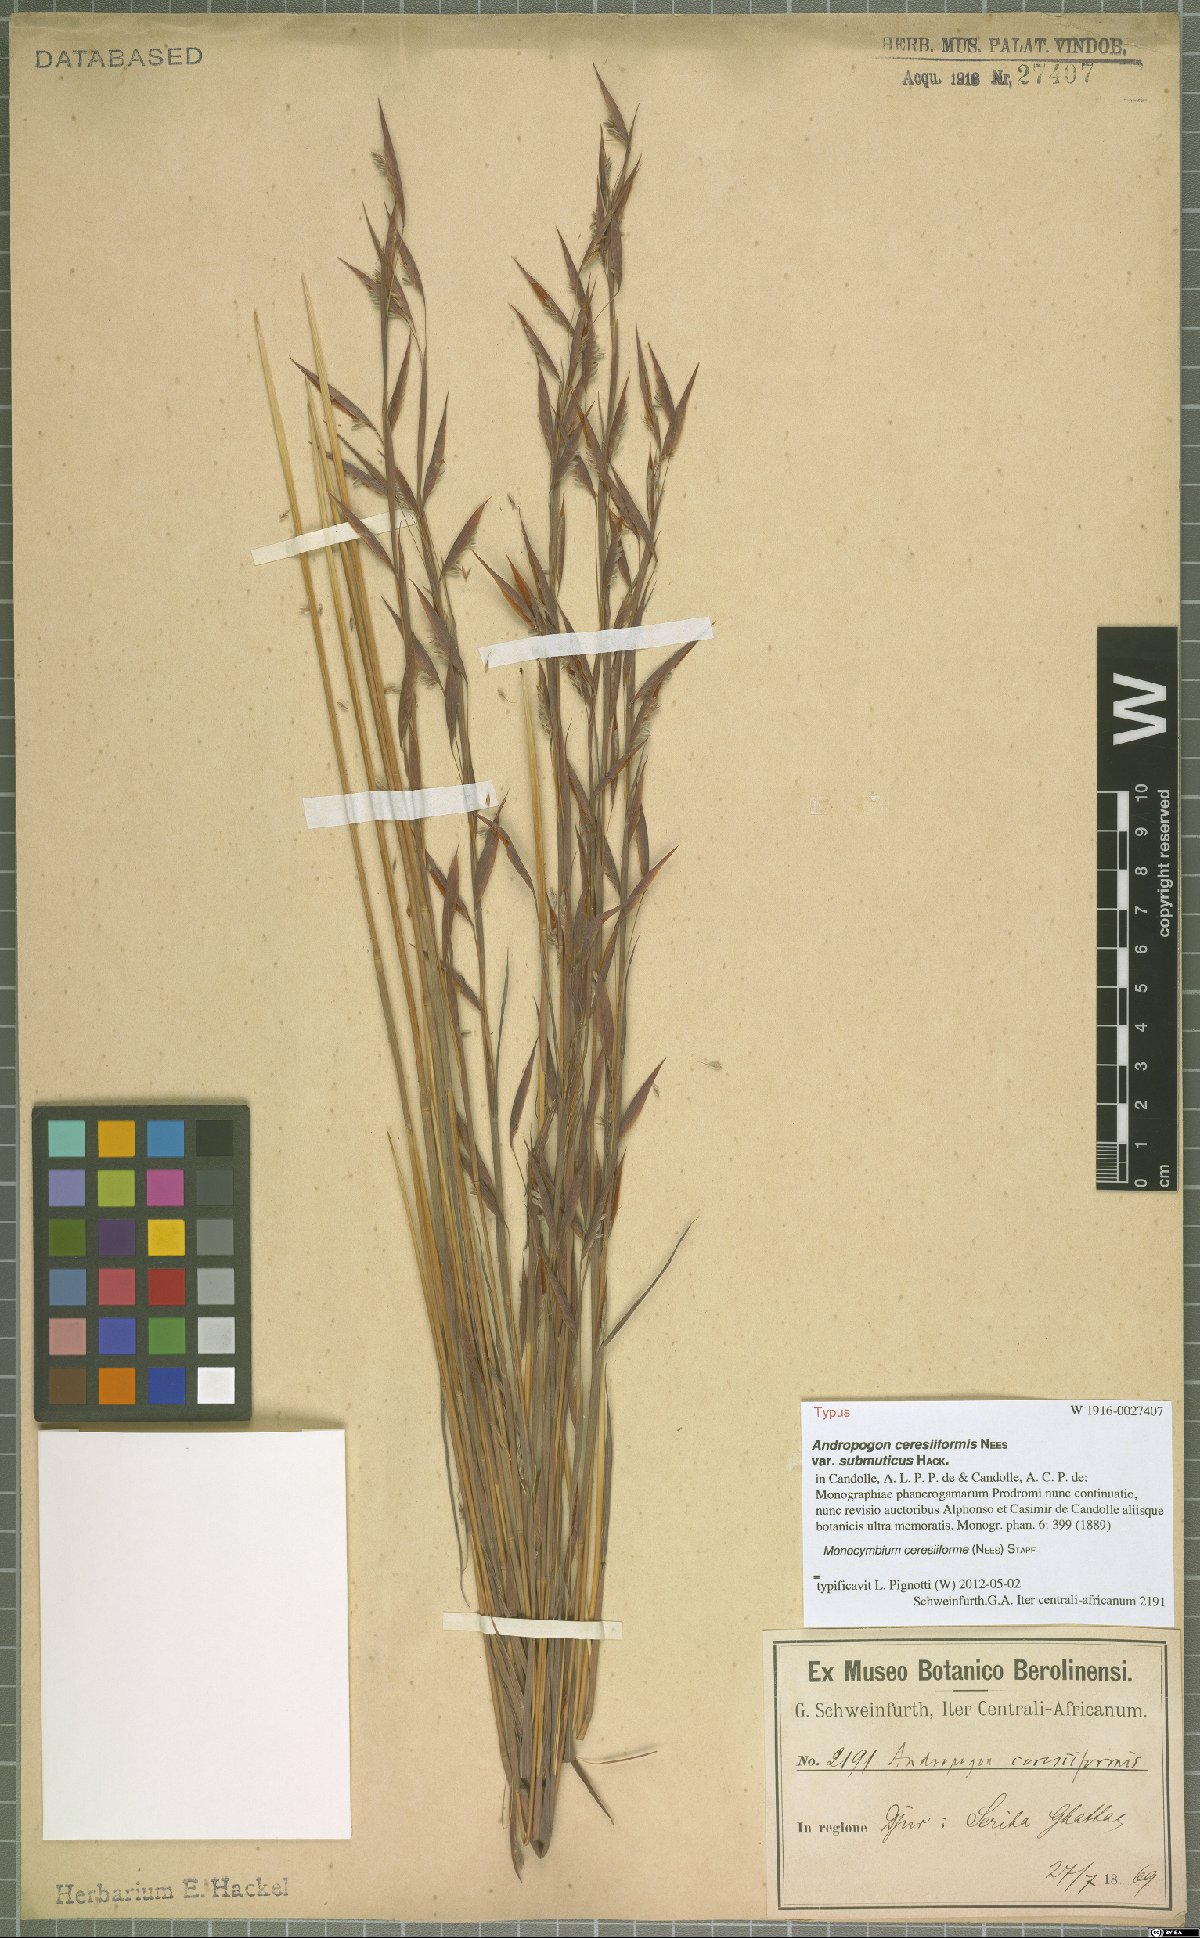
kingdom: Plantae
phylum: Tracheophyta
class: Liliopsida
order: Poales
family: Poaceae
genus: Monocymbium
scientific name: Monocymbium ceresiiforme
